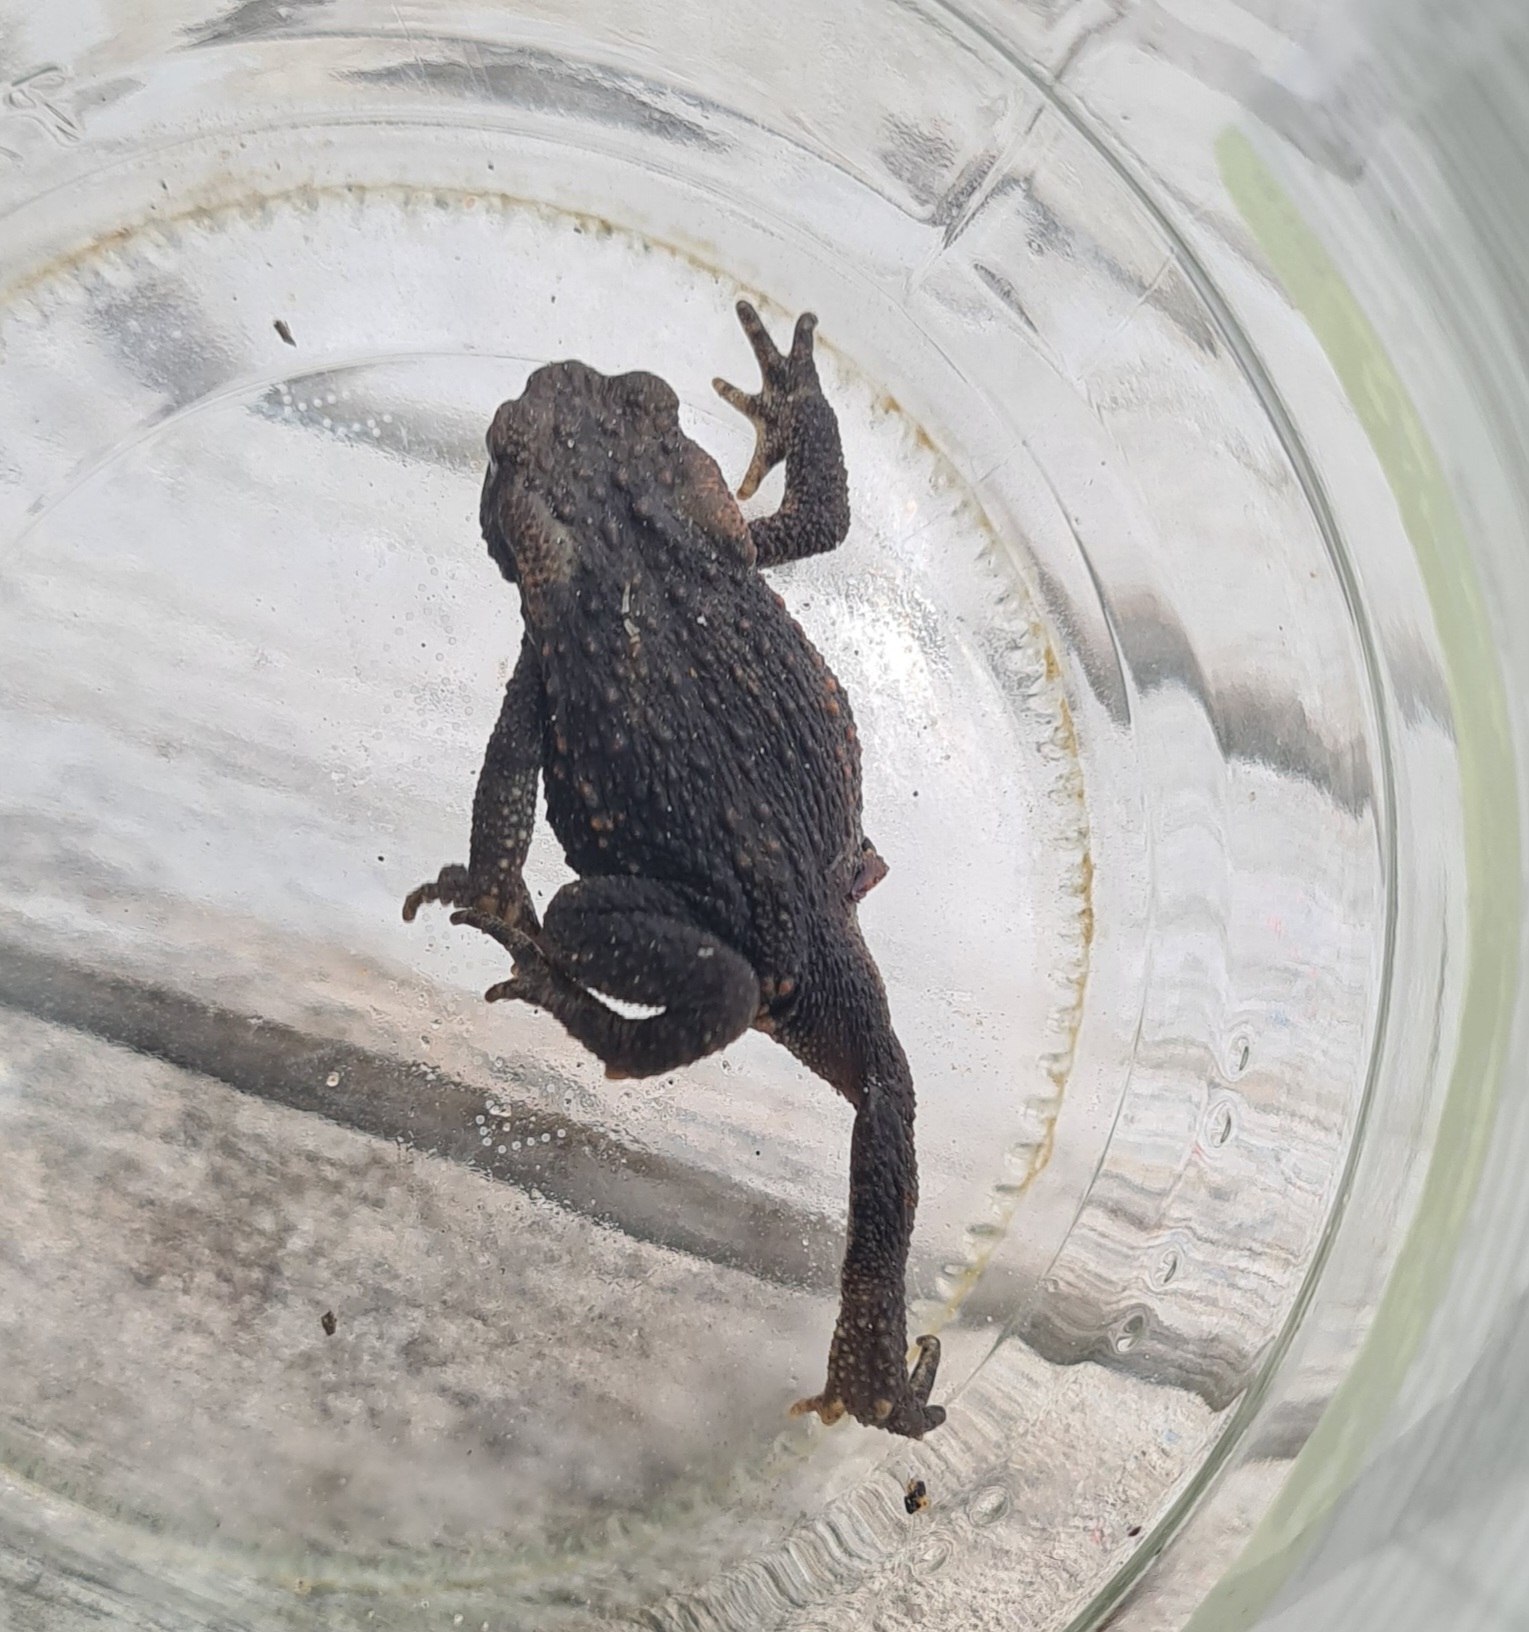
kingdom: Animalia
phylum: Chordata
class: Amphibia
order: Anura
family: Bufonidae
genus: Bufo
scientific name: Bufo bufo
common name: Skrubtudse
